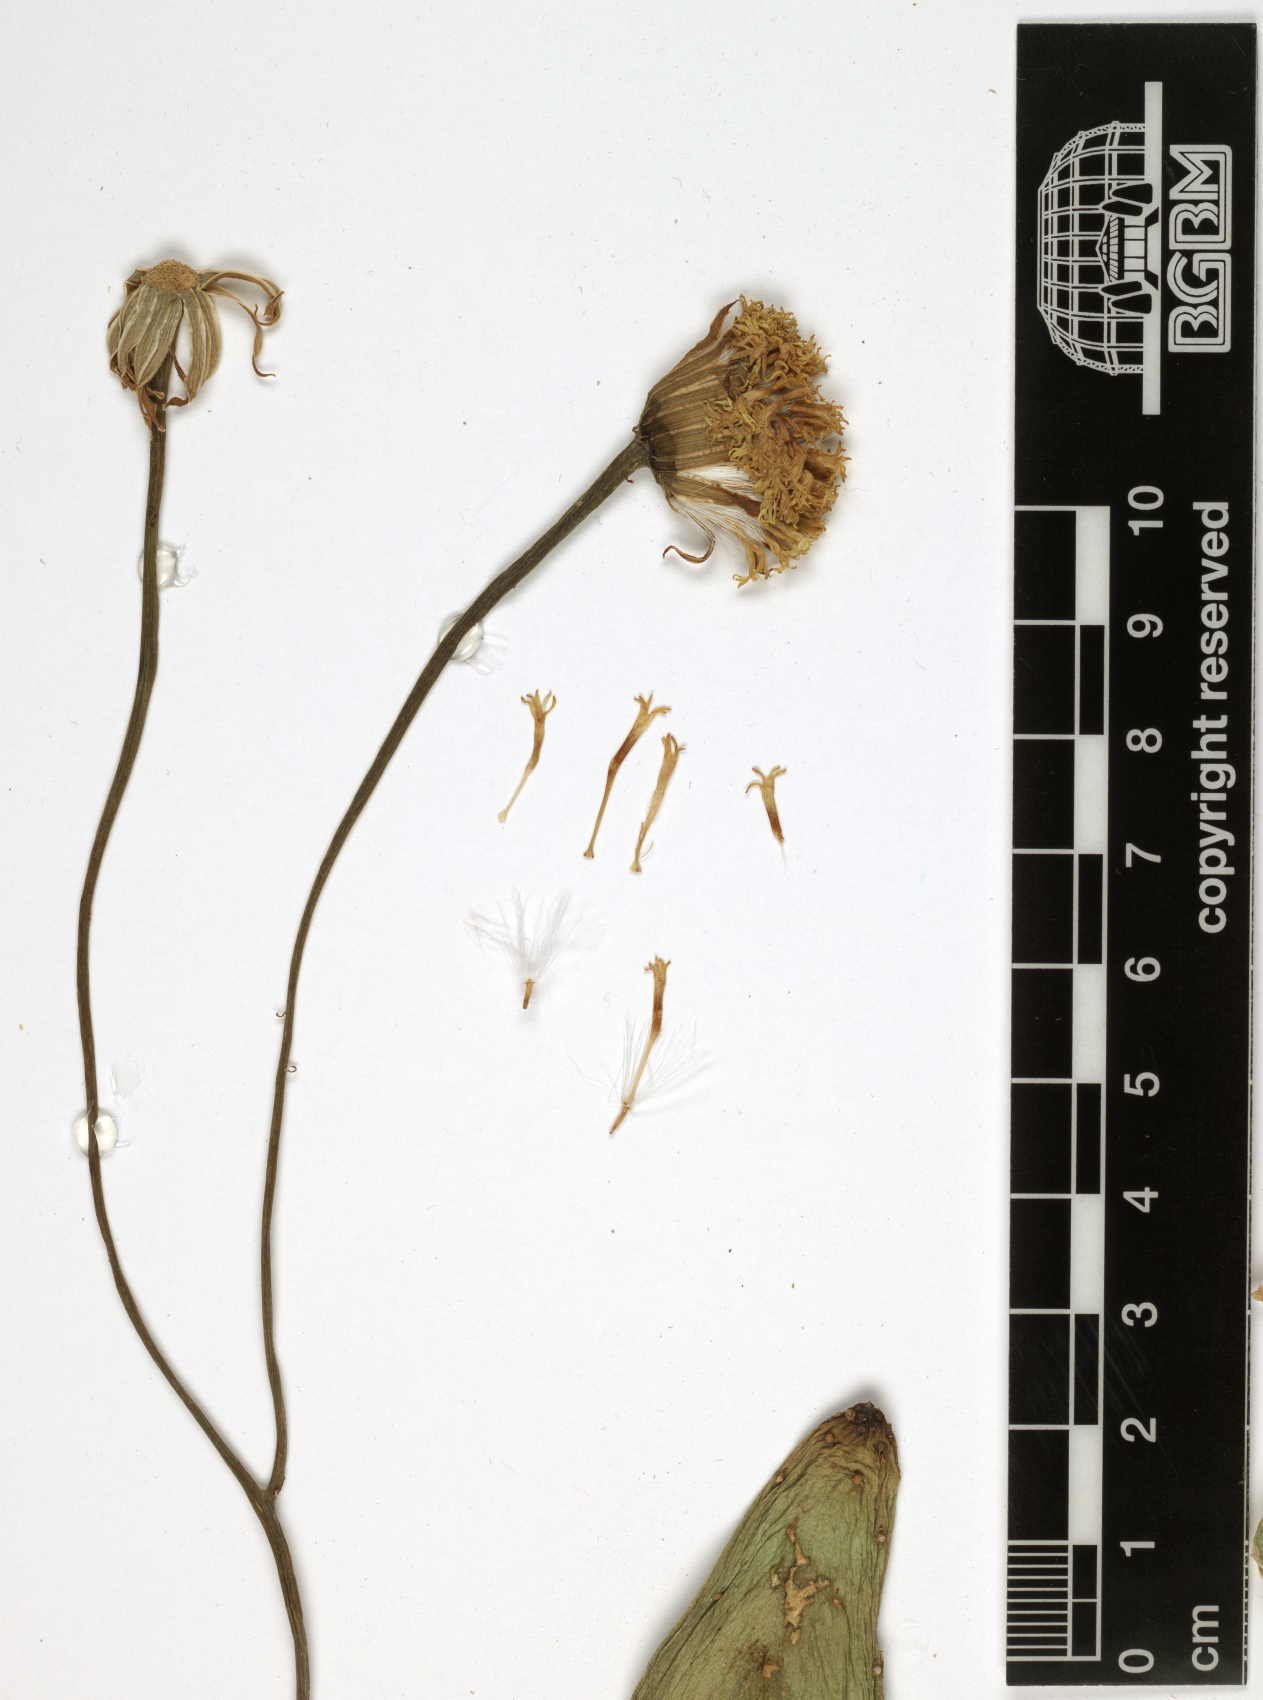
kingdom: Plantae
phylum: Tracheophyta
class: Magnoliopsida
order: Asterales
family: Asteraceae
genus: Kleinia
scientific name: Kleinia deflersii
